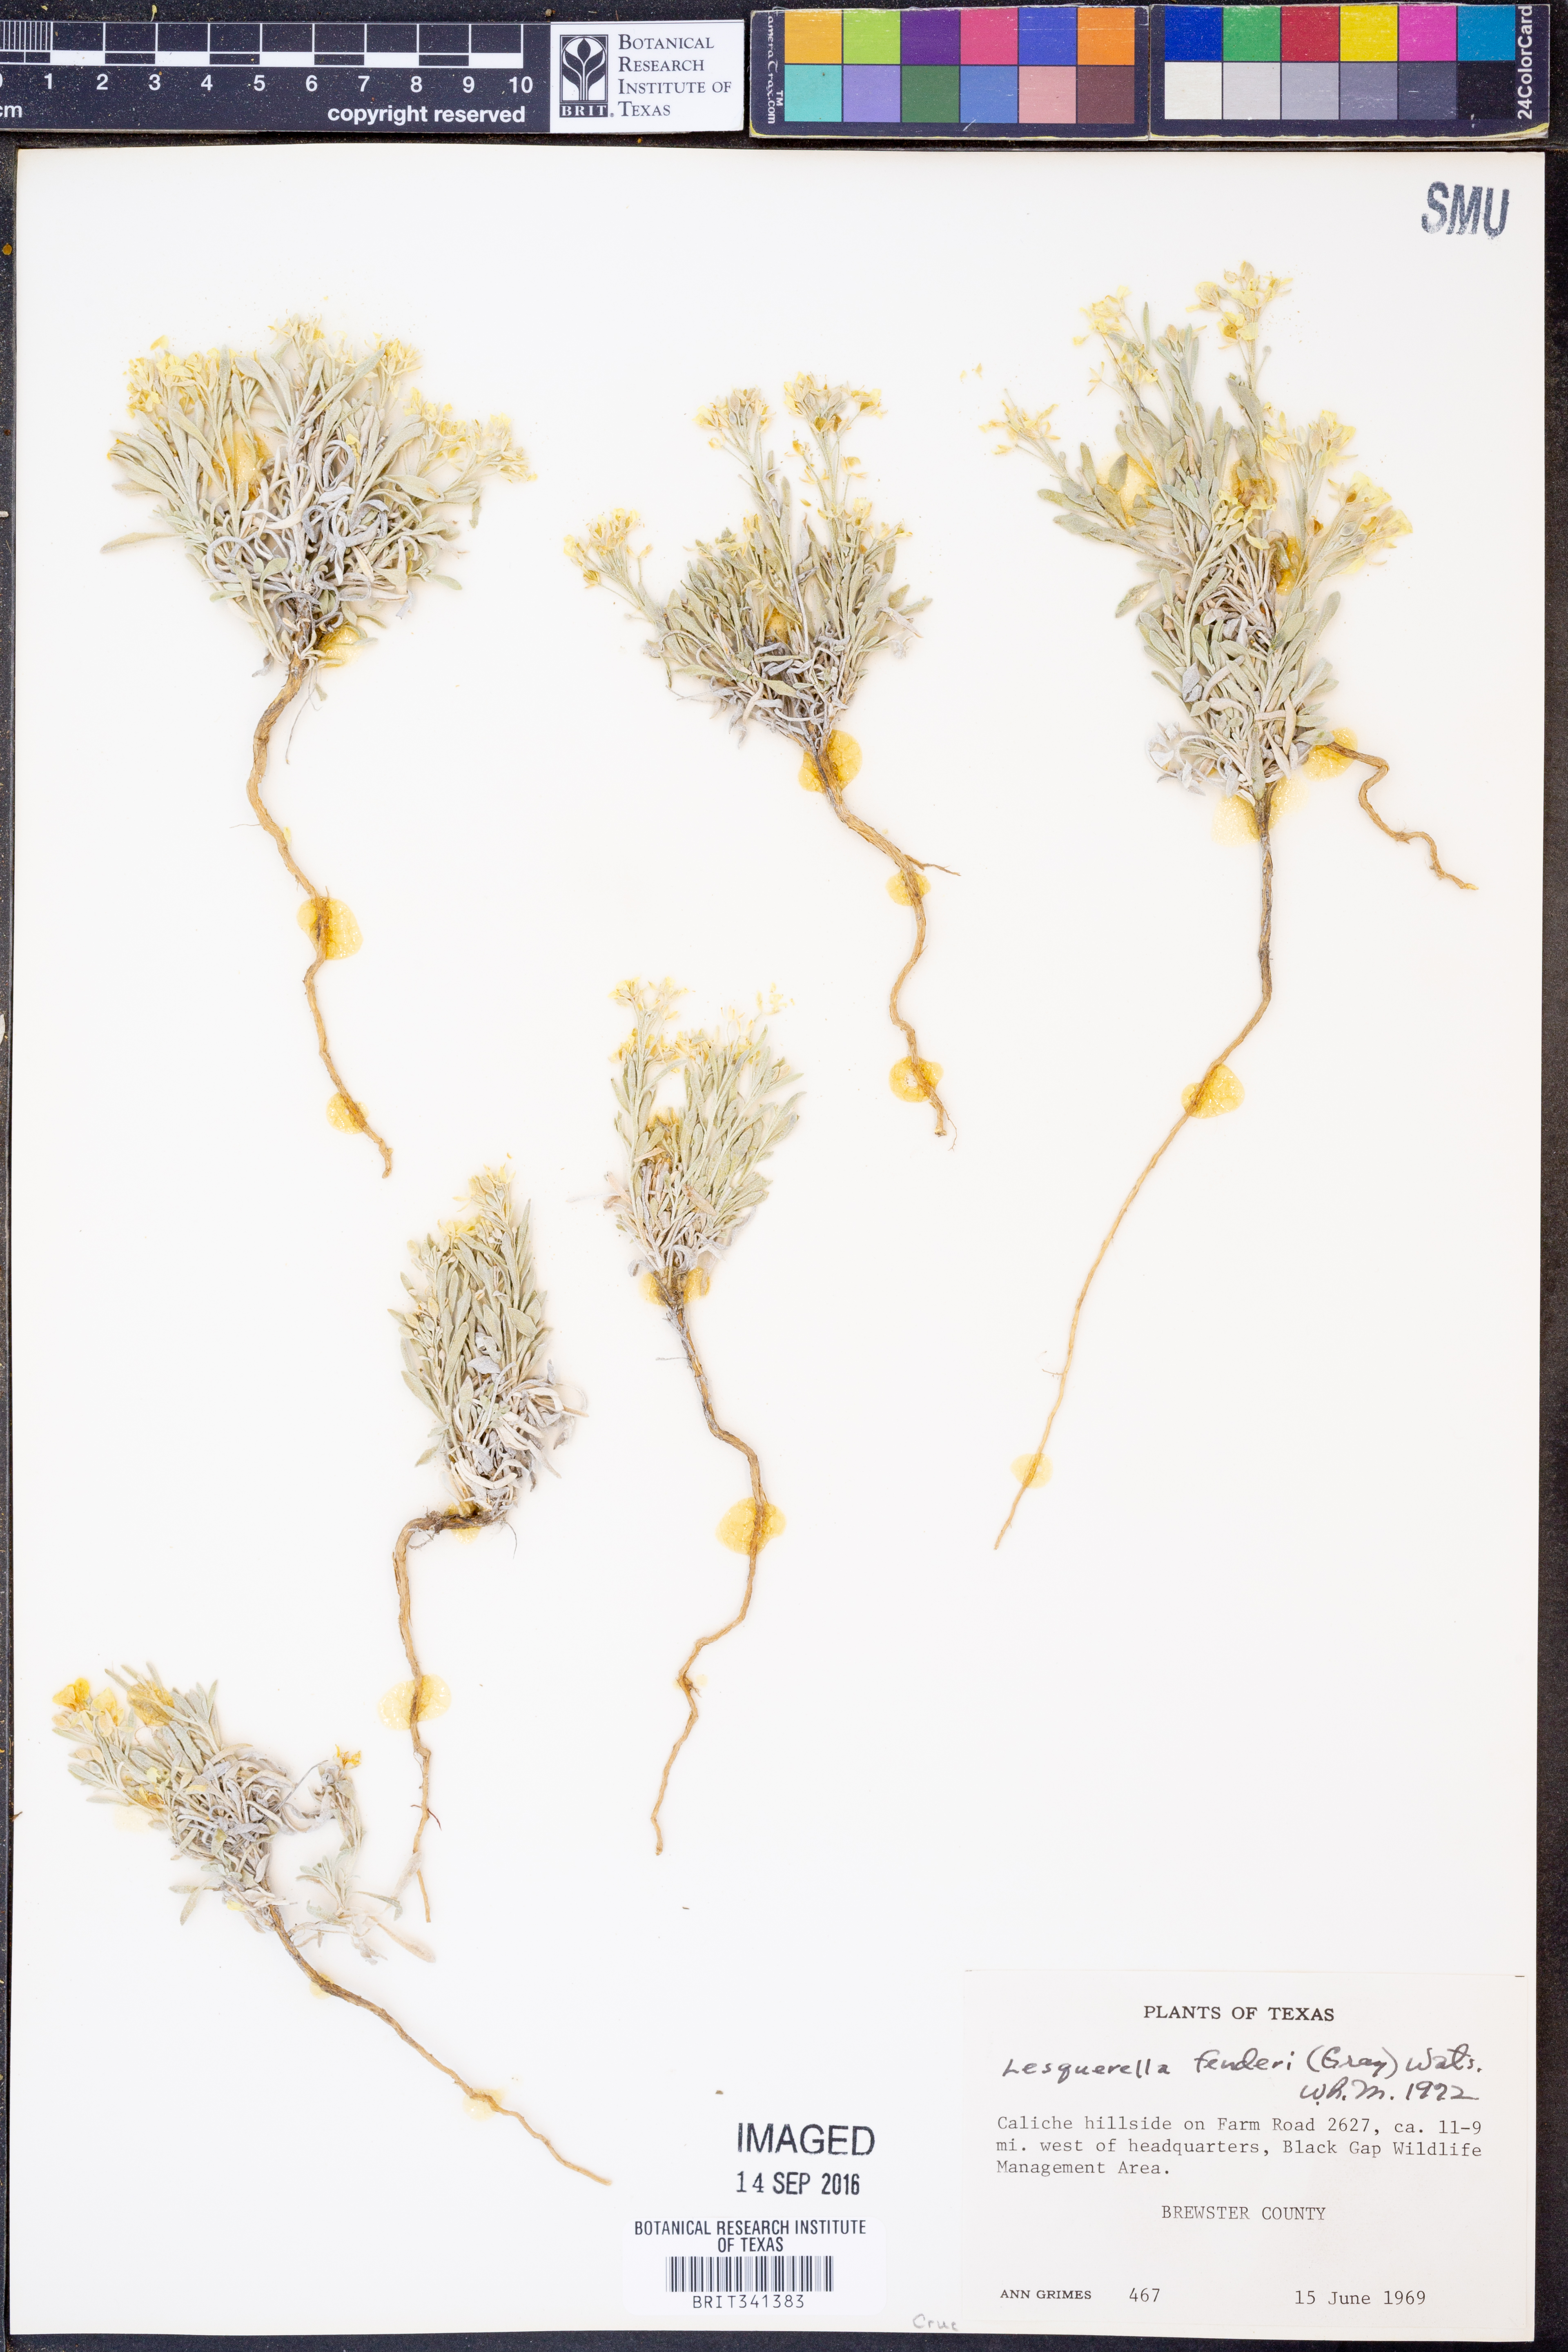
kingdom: Plantae
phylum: Tracheophyta
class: Magnoliopsida
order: Brassicales
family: Brassicaceae
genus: Physaria
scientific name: Physaria fendleri
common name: Fendler's bladderpod
